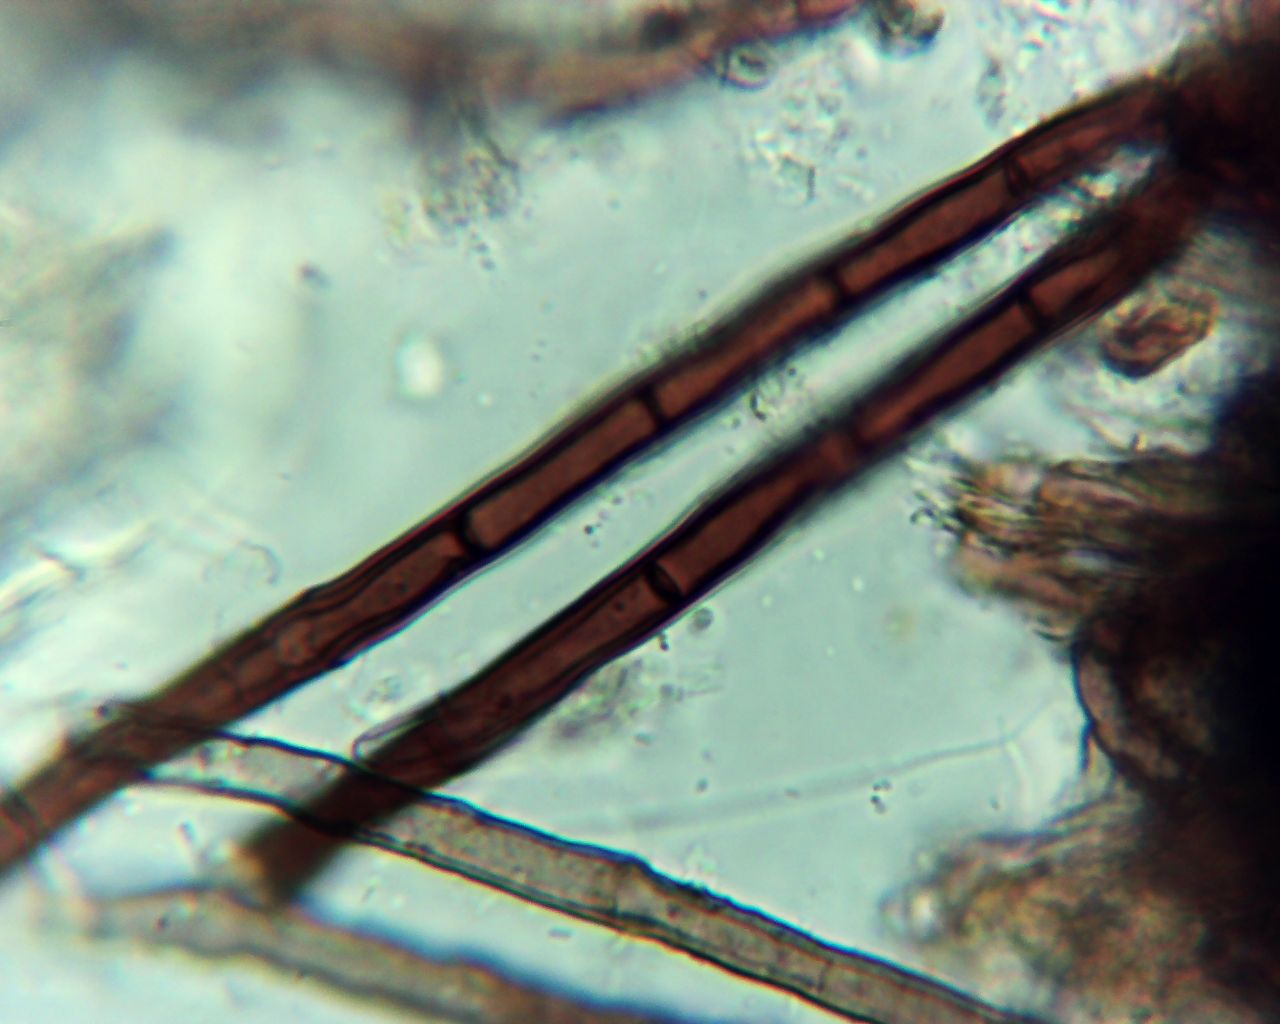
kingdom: Fungi
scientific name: Fungi
